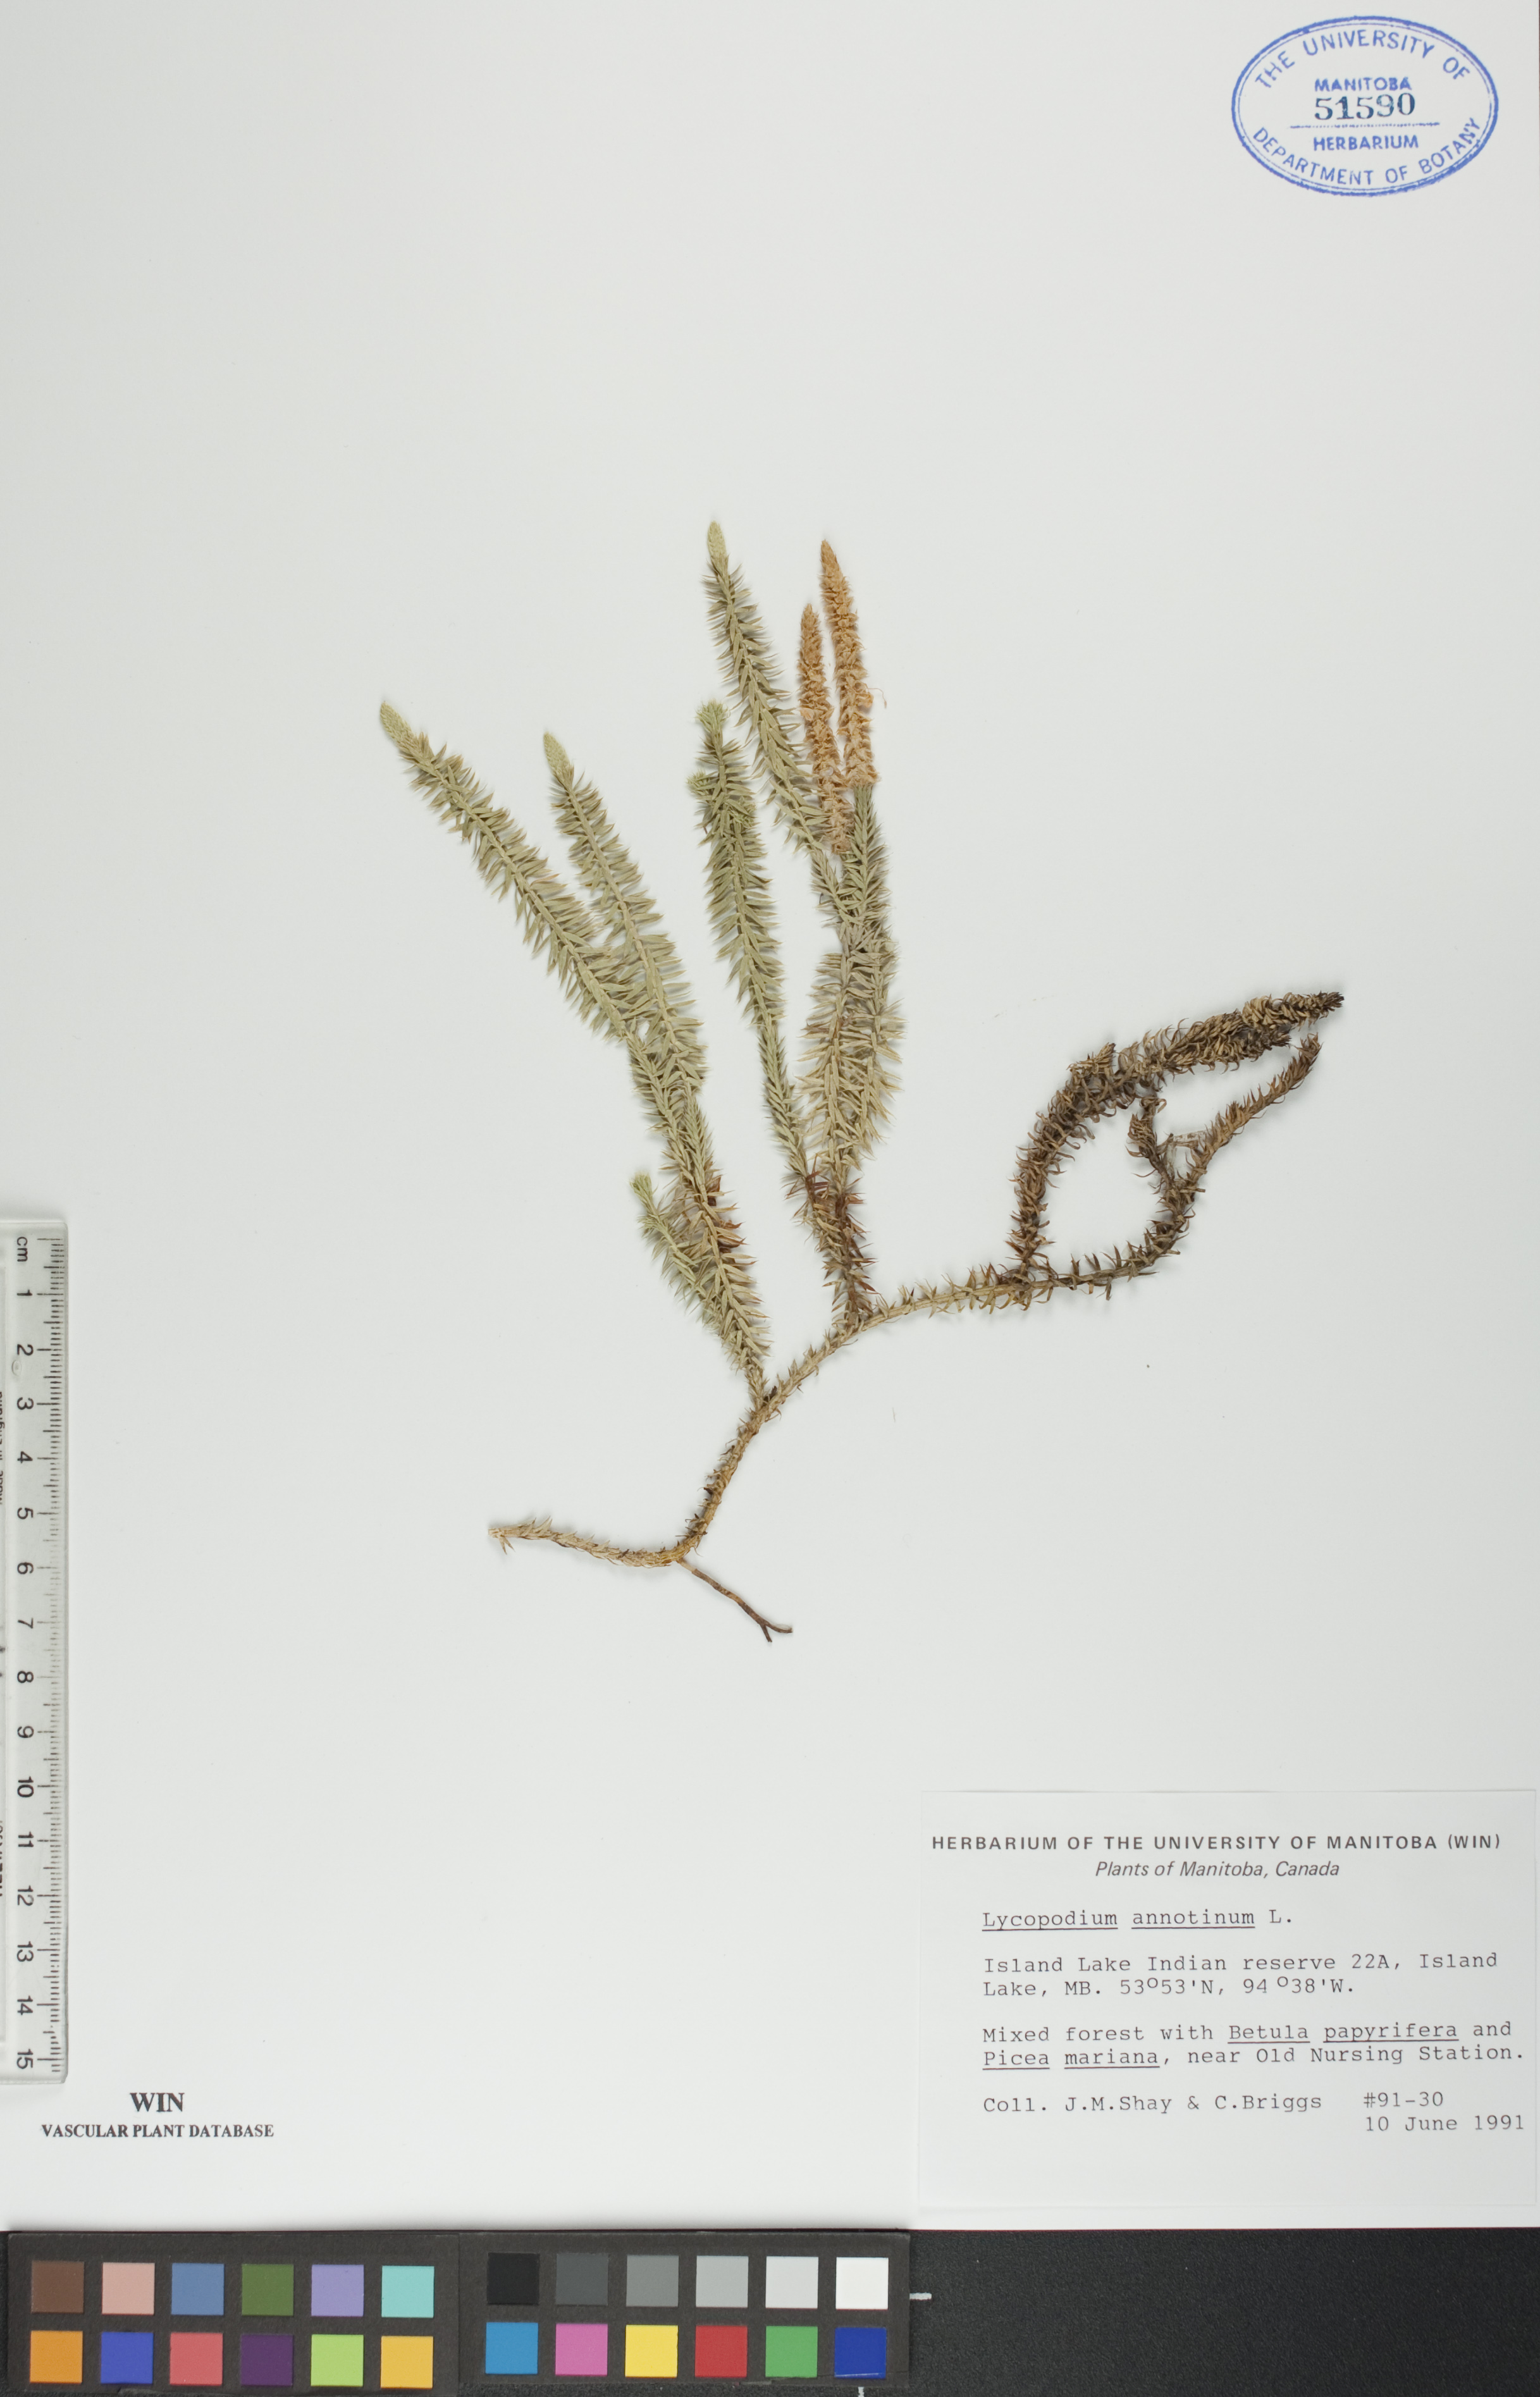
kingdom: Plantae
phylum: Tracheophyta
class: Lycopodiopsida
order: Lycopodiales
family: Lycopodiaceae
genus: Spinulum
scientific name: Spinulum annotinum
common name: Interrupted club-moss
